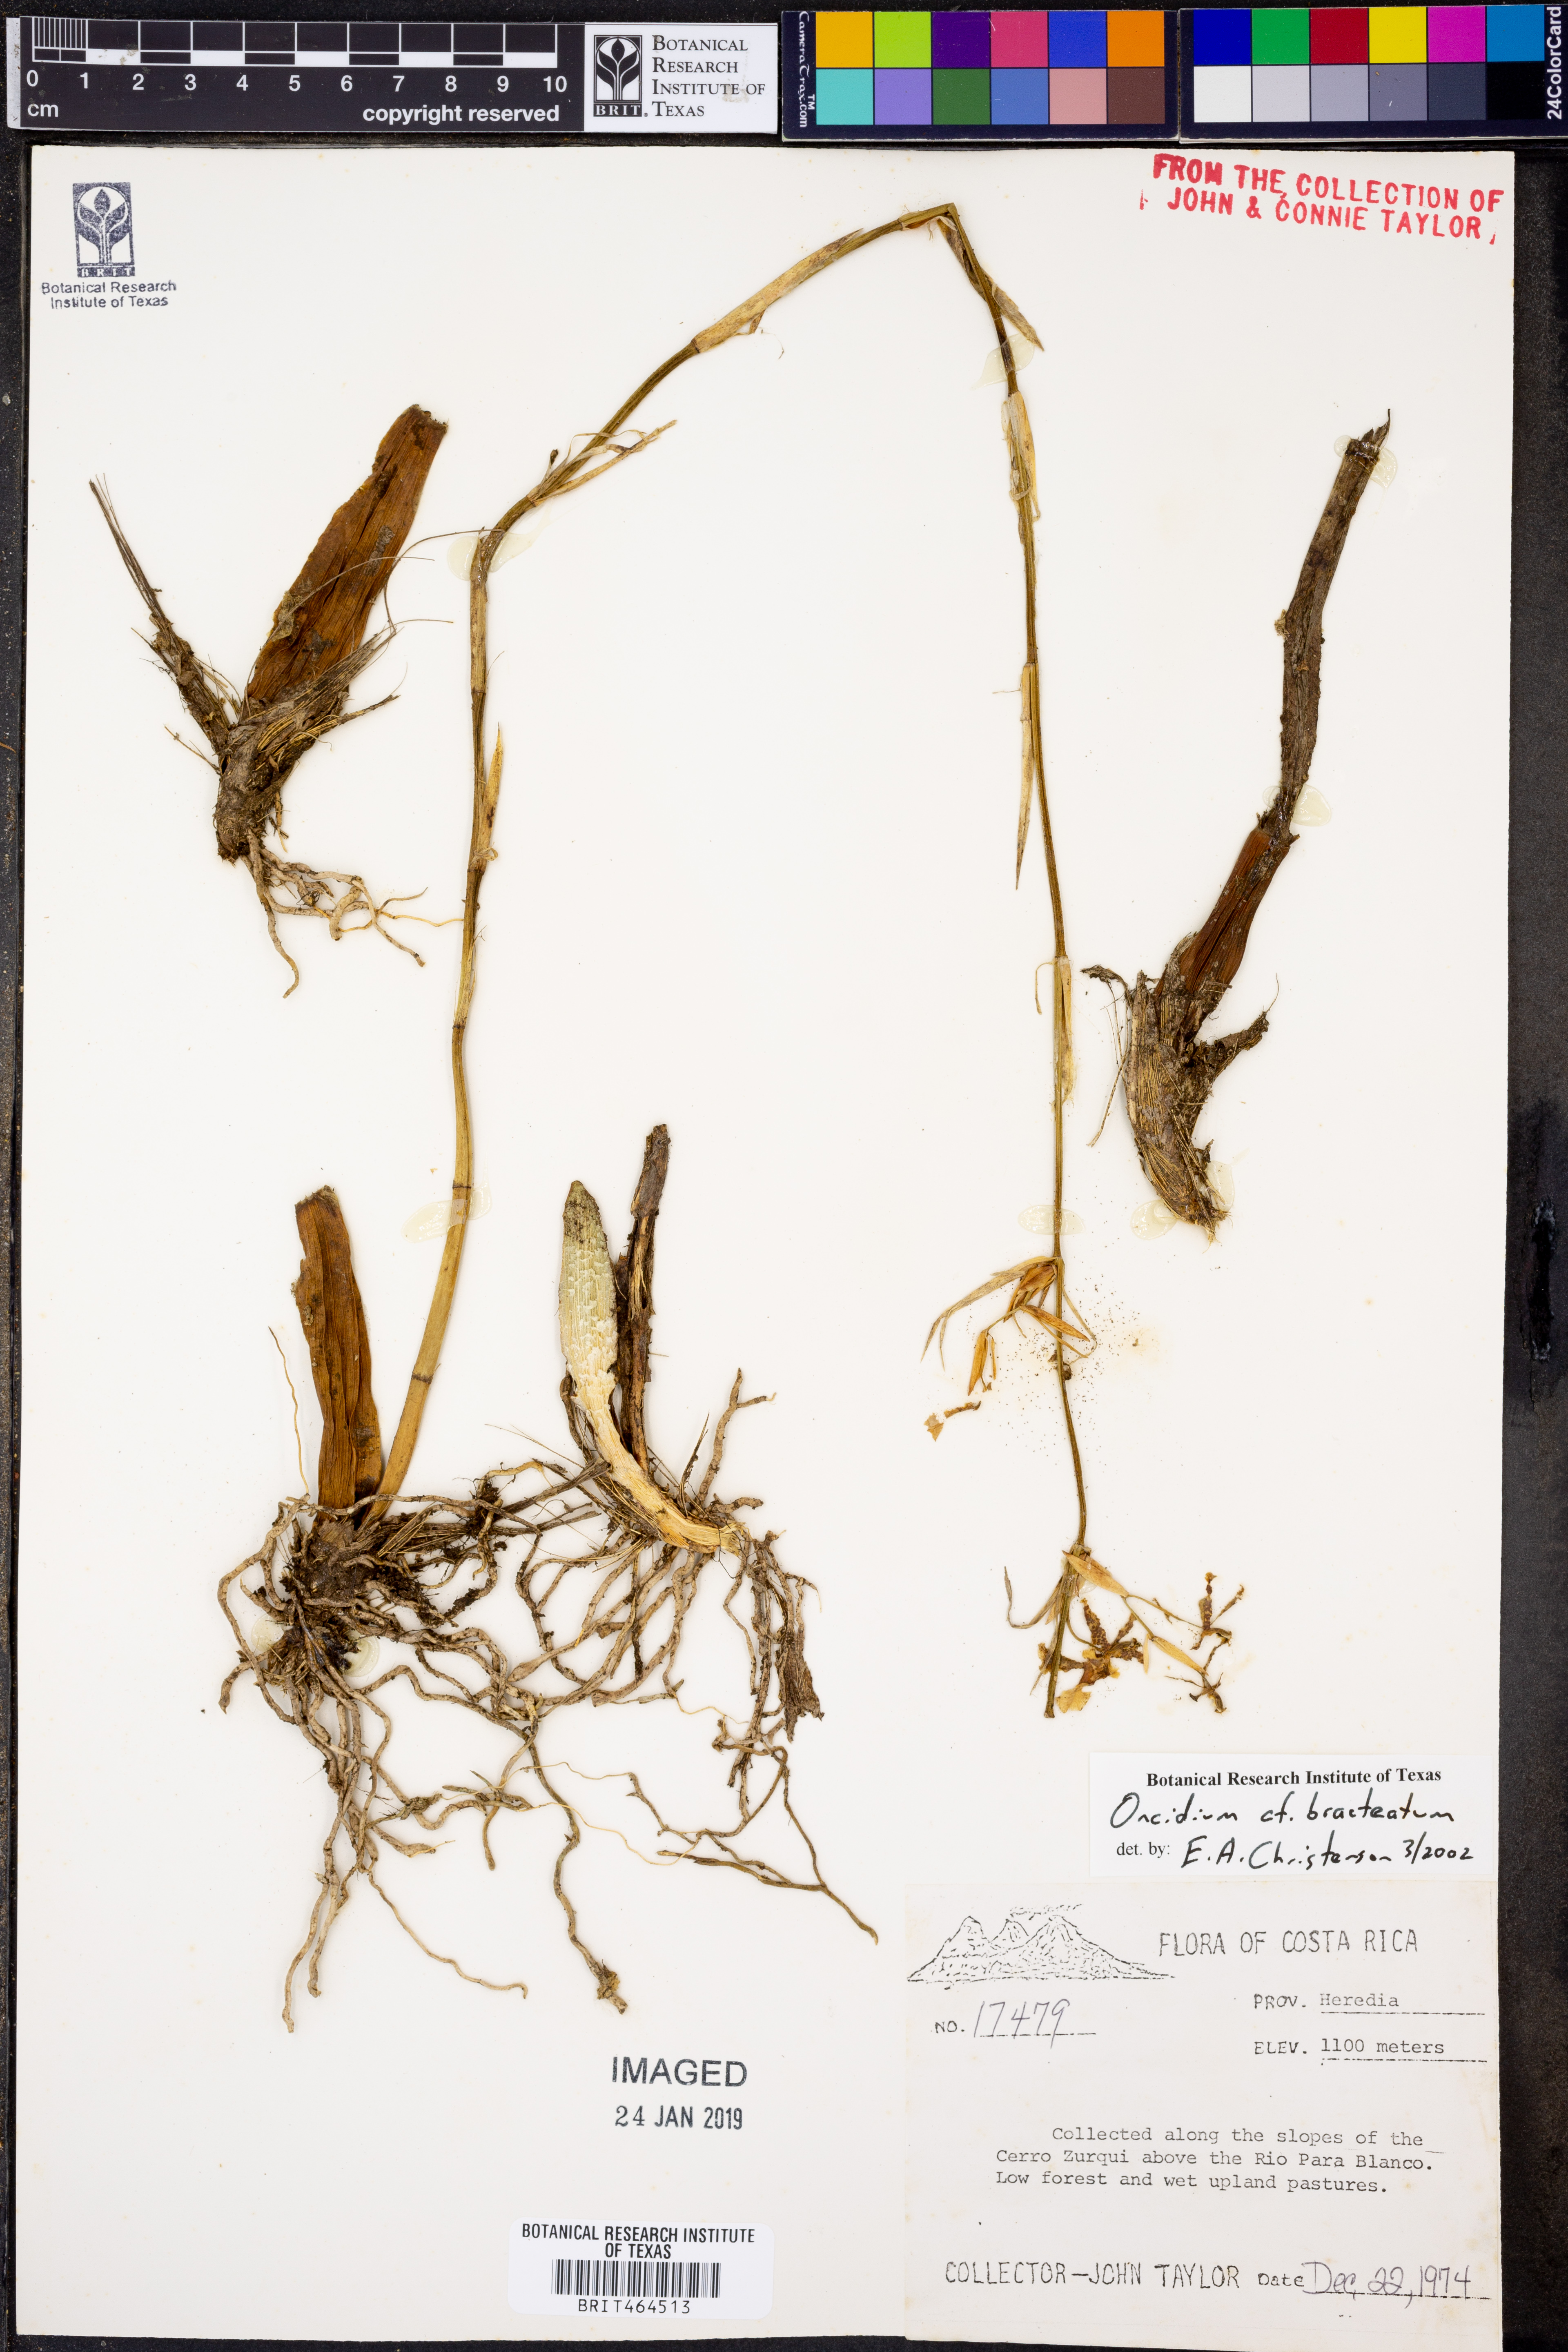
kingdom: Plantae
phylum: Tracheophyta
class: Liliopsida
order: Asparagales
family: Orchidaceae
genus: Oncidium
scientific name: Oncidium bracteatum
